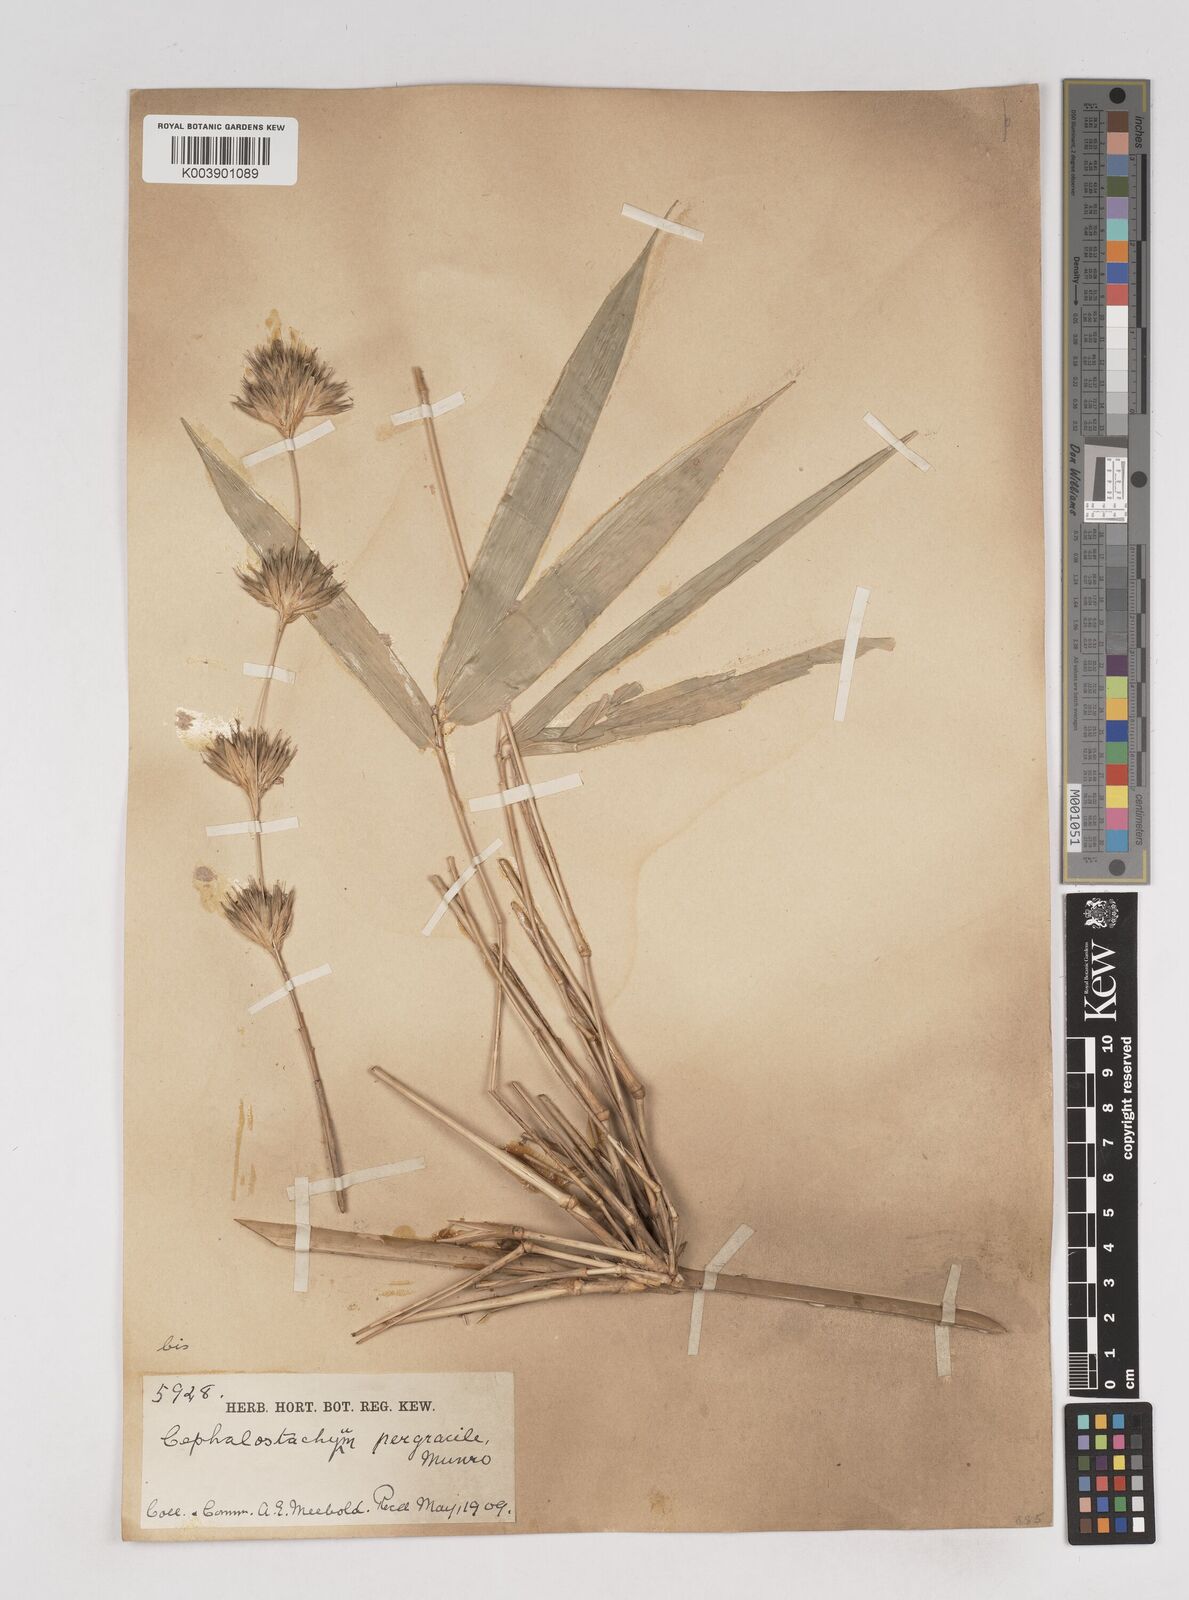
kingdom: Plantae
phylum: Tracheophyta
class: Liliopsida
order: Poales
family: Poaceae
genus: Schizostachyum
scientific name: Schizostachyum pergracile
